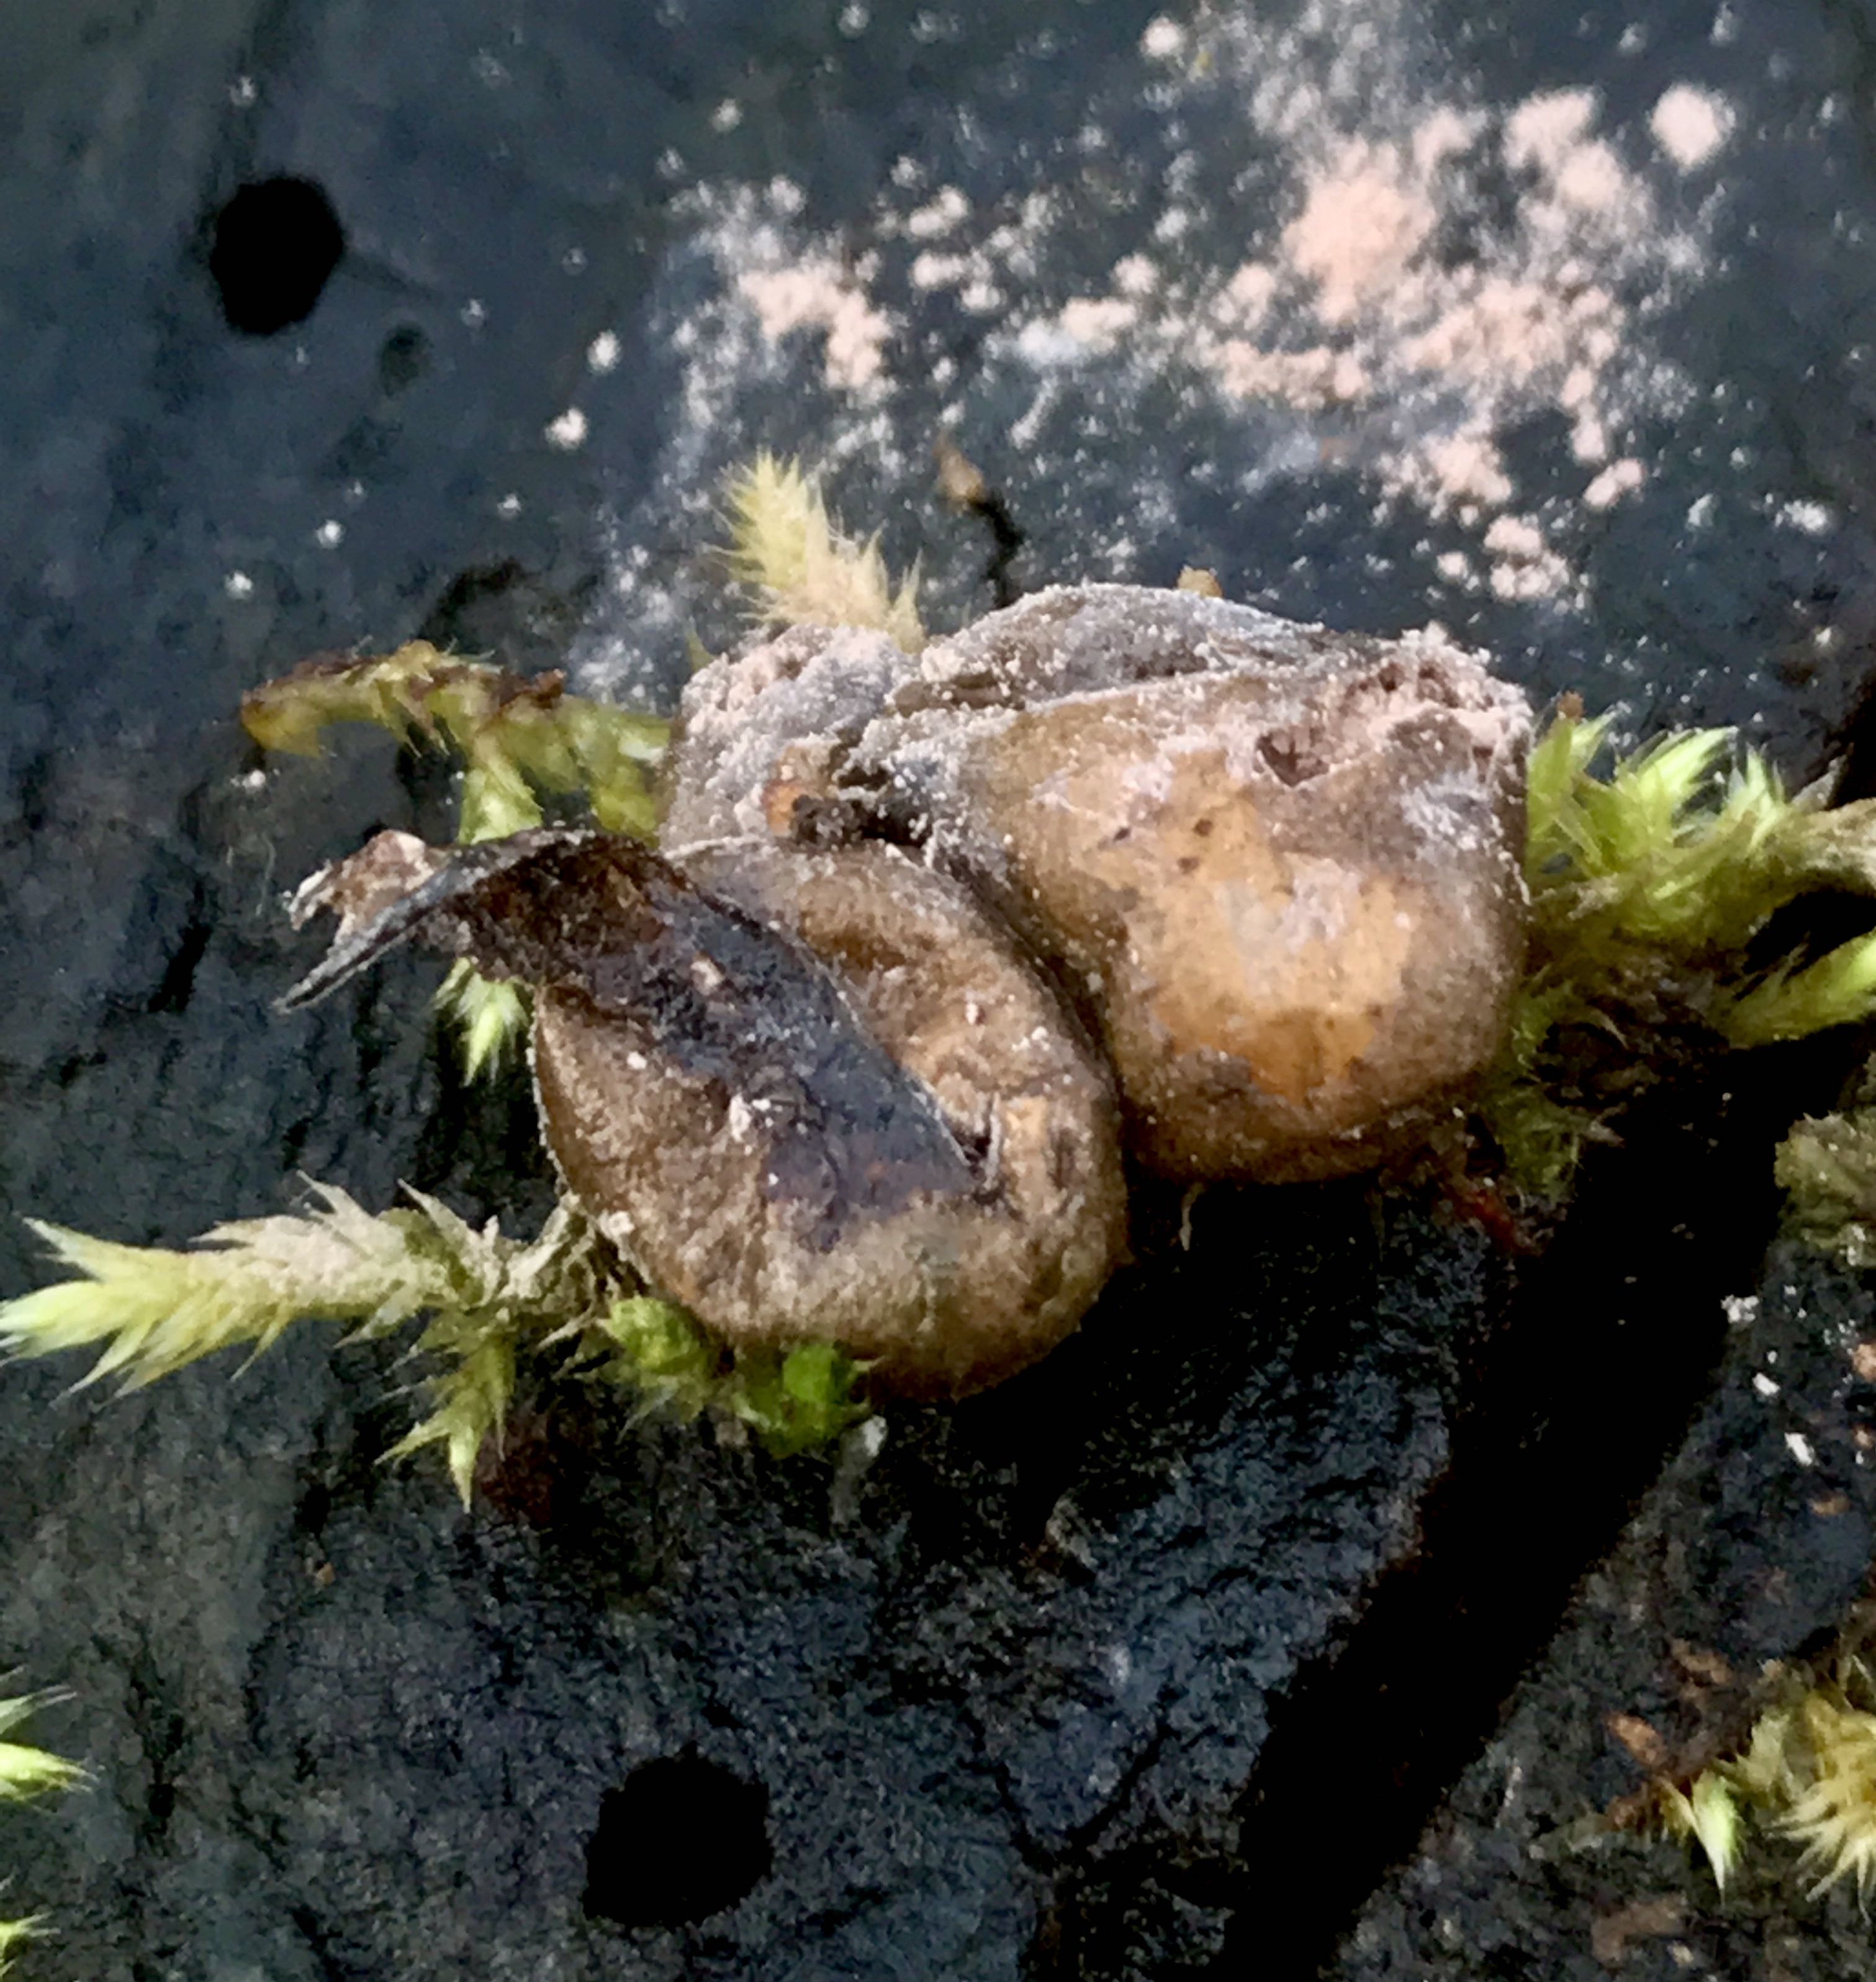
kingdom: Protozoa
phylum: Mycetozoa
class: Myxomycetes
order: Cribrariales
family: Tubiferaceae
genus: Lycogala
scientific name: Lycogala epidendrum
